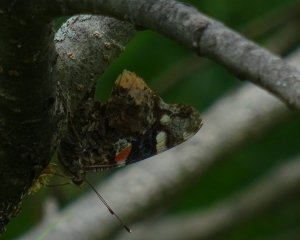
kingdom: Animalia
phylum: Arthropoda
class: Insecta
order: Lepidoptera
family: Nymphalidae
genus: Vanessa
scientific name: Vanessa atalanta
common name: Red Admiral
